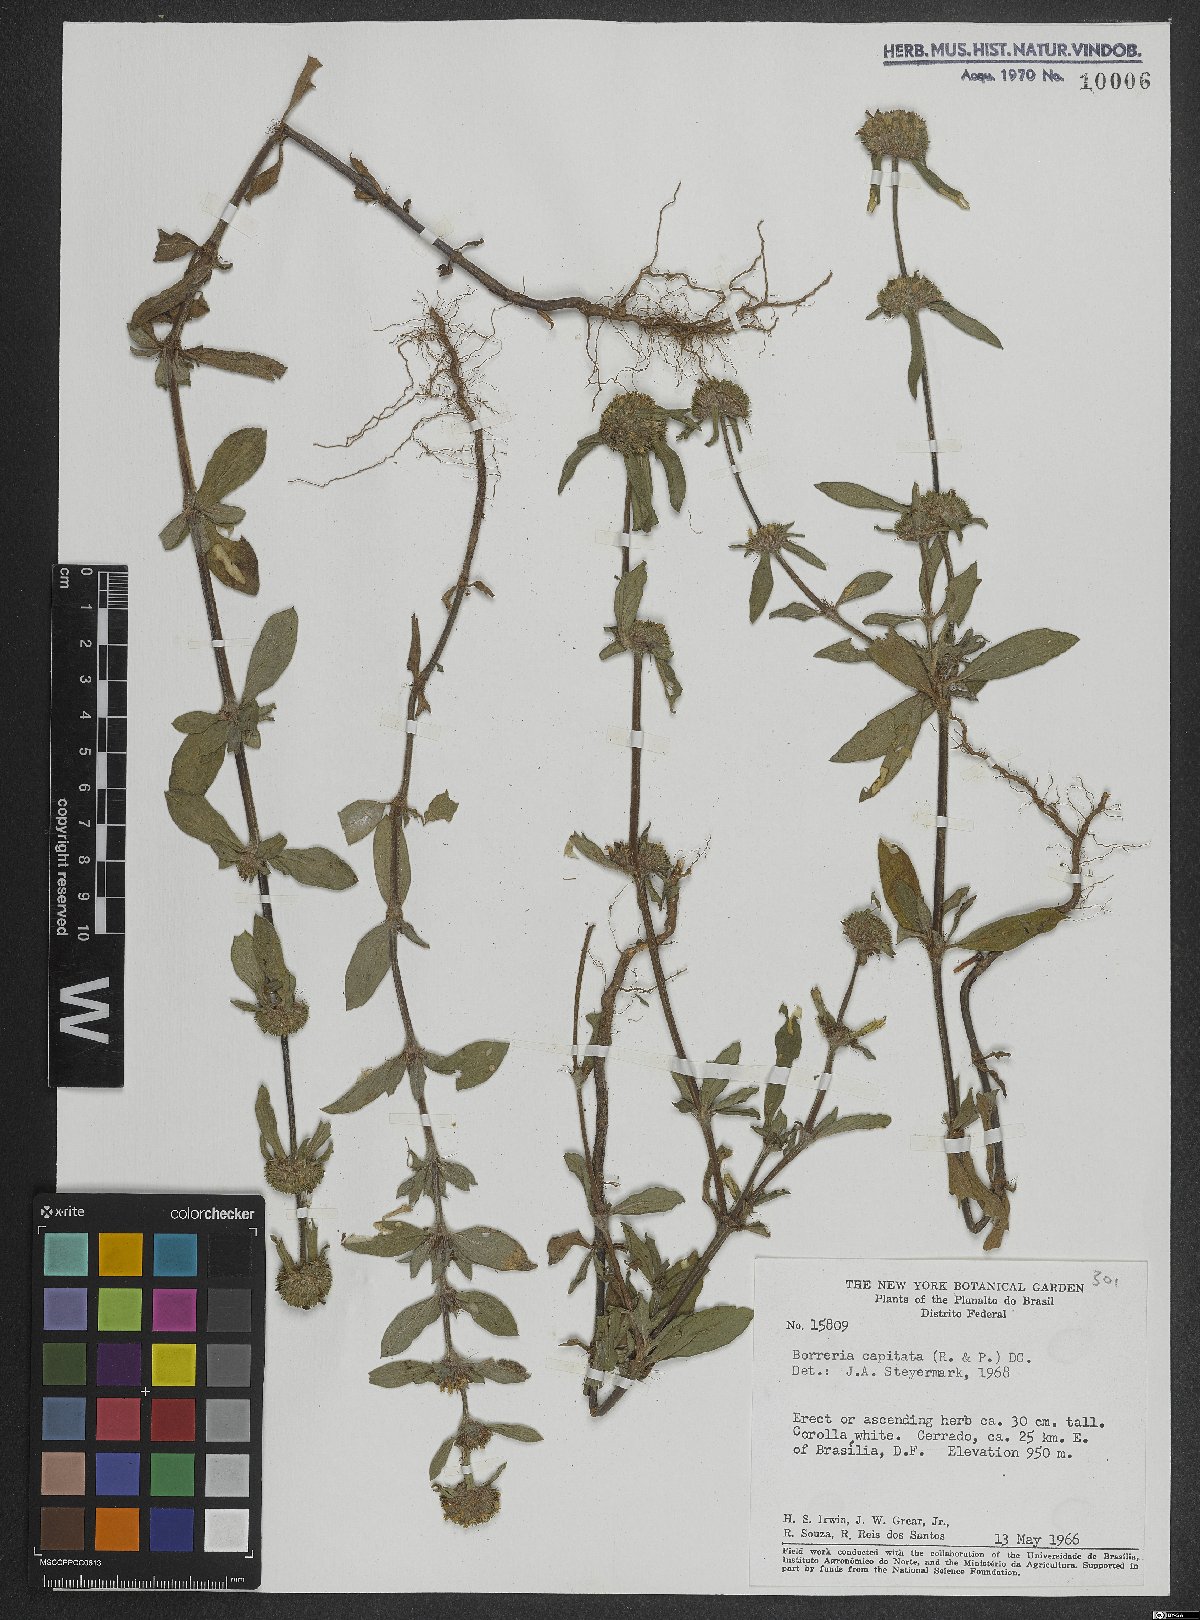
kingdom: Plantae
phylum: Tracheophyta
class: Magnoliopsida
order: Gentianales
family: Rubiaceae
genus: Spermacoce
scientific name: Spermacoce capitata
